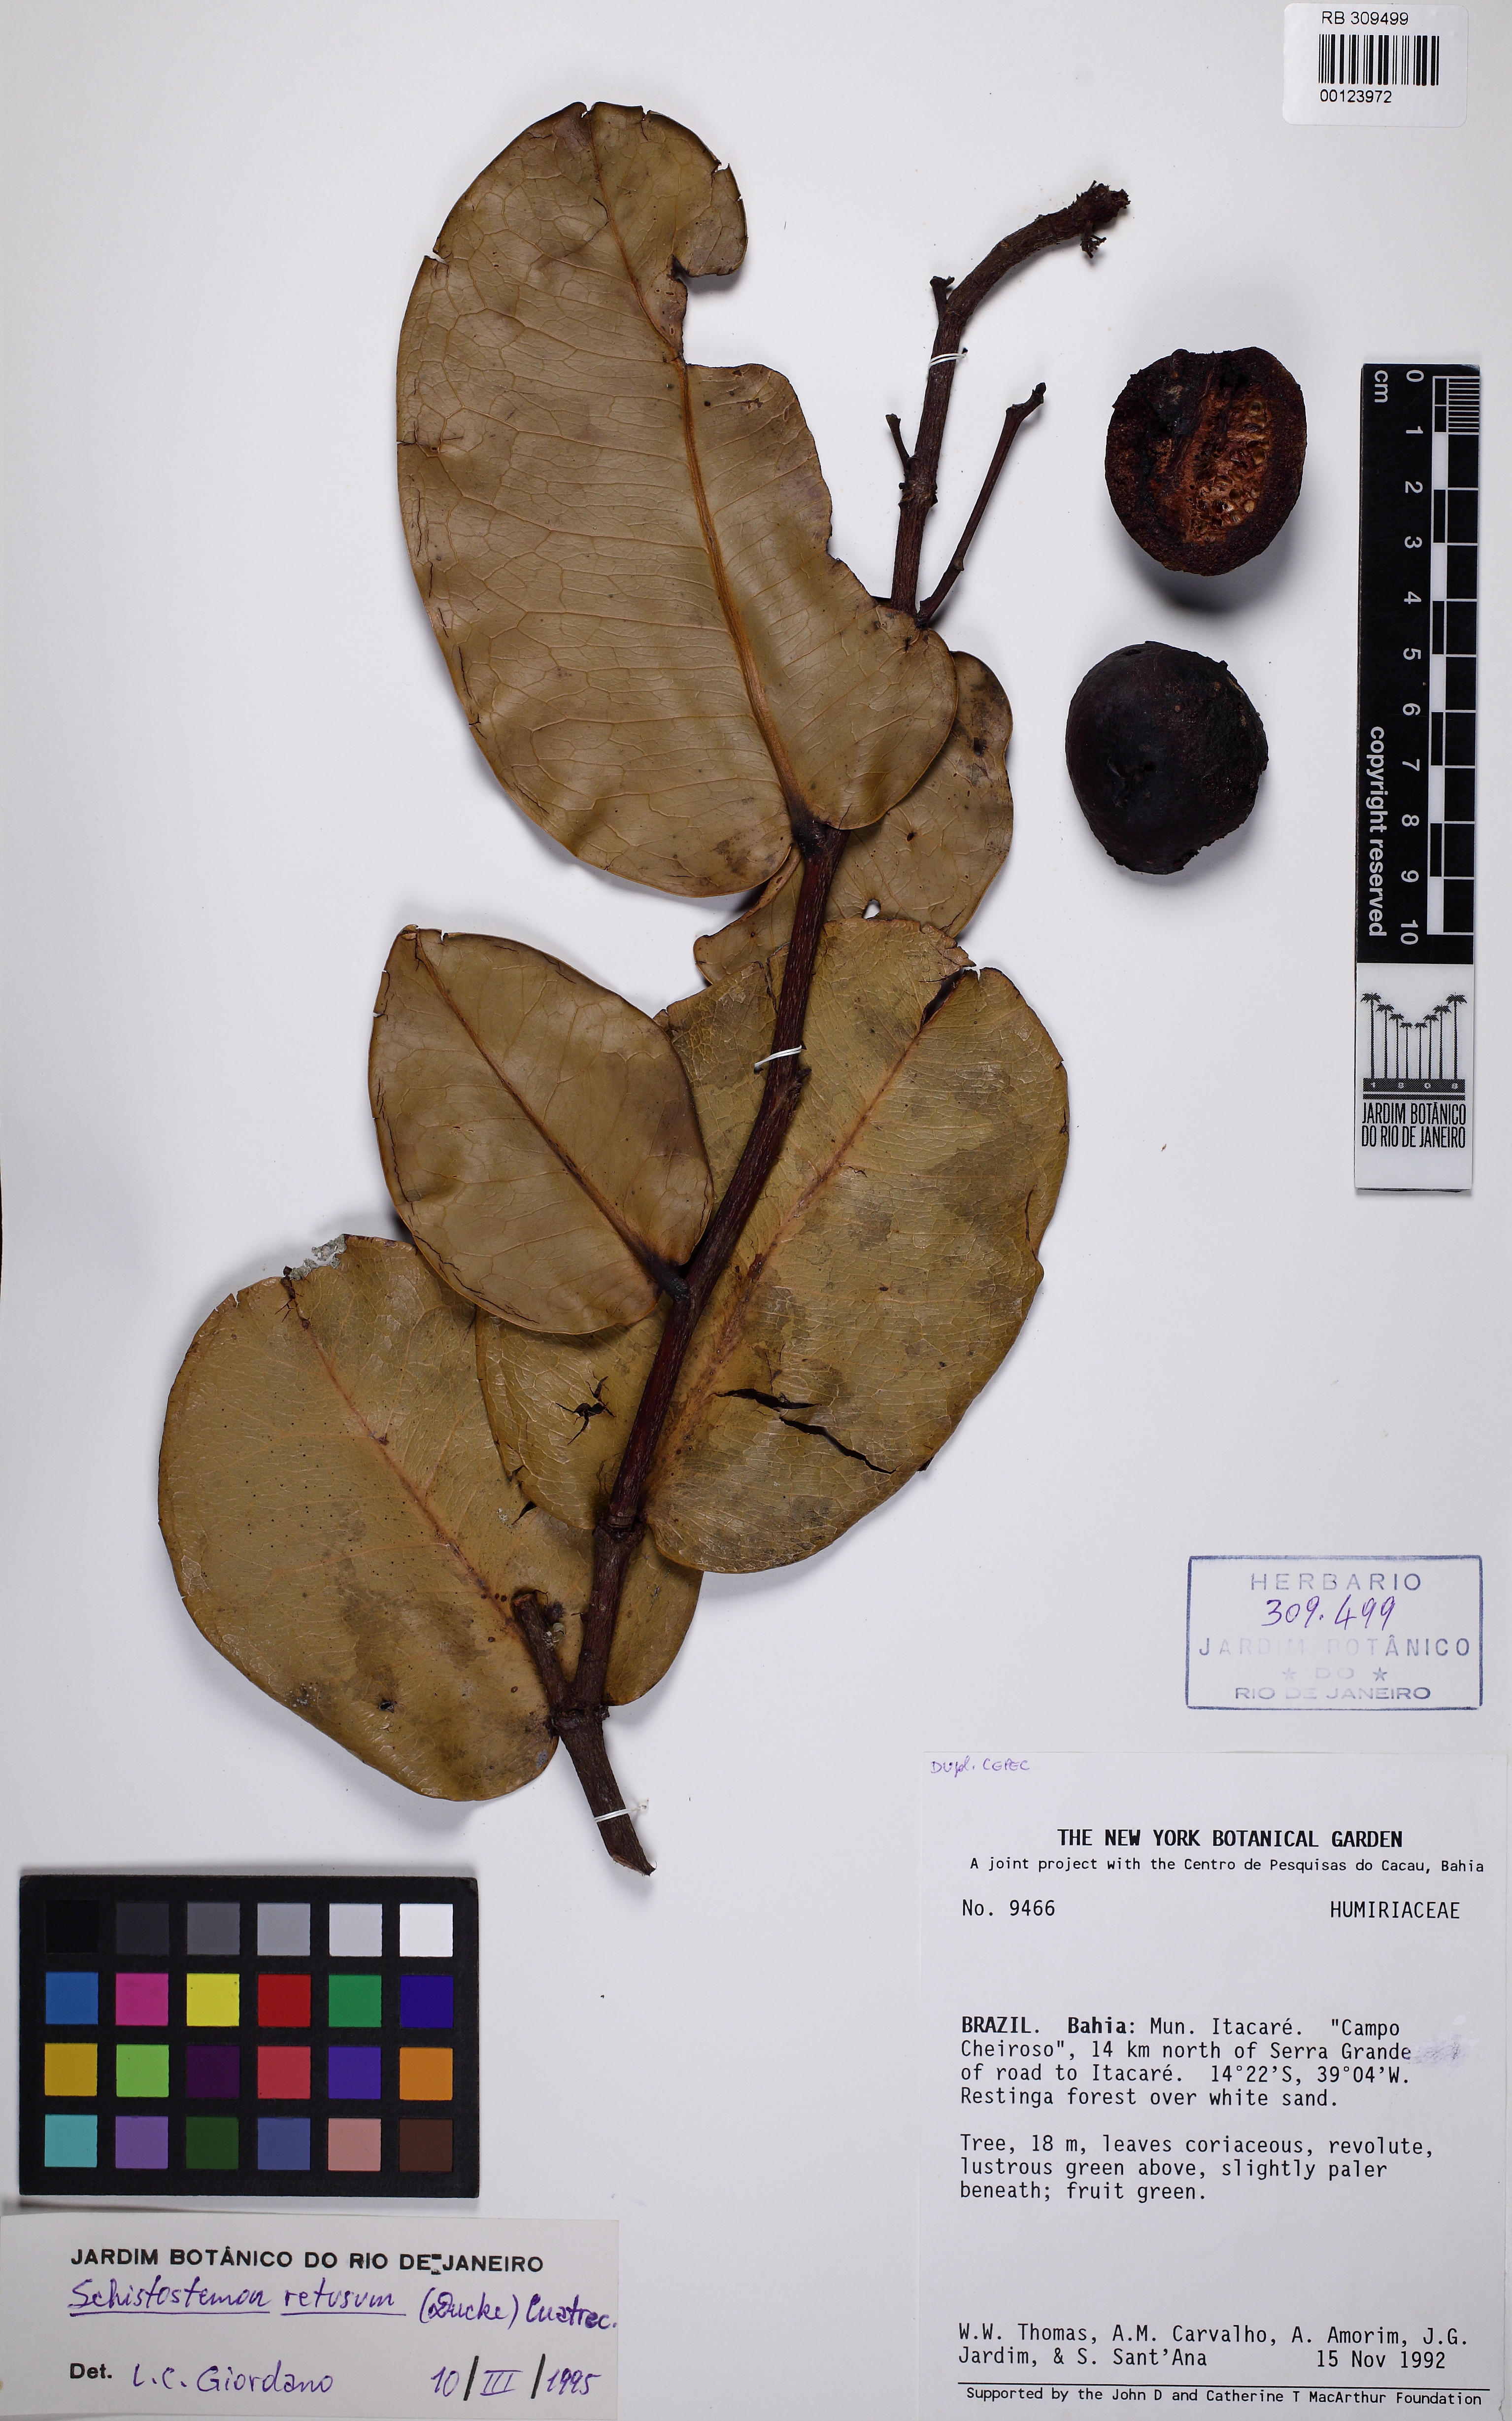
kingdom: Plantae
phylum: Tracheophyta
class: Magnoliopsida
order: Malpighiales
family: Humiriaceae
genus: Schistostemon
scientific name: Schistostemon retusum
